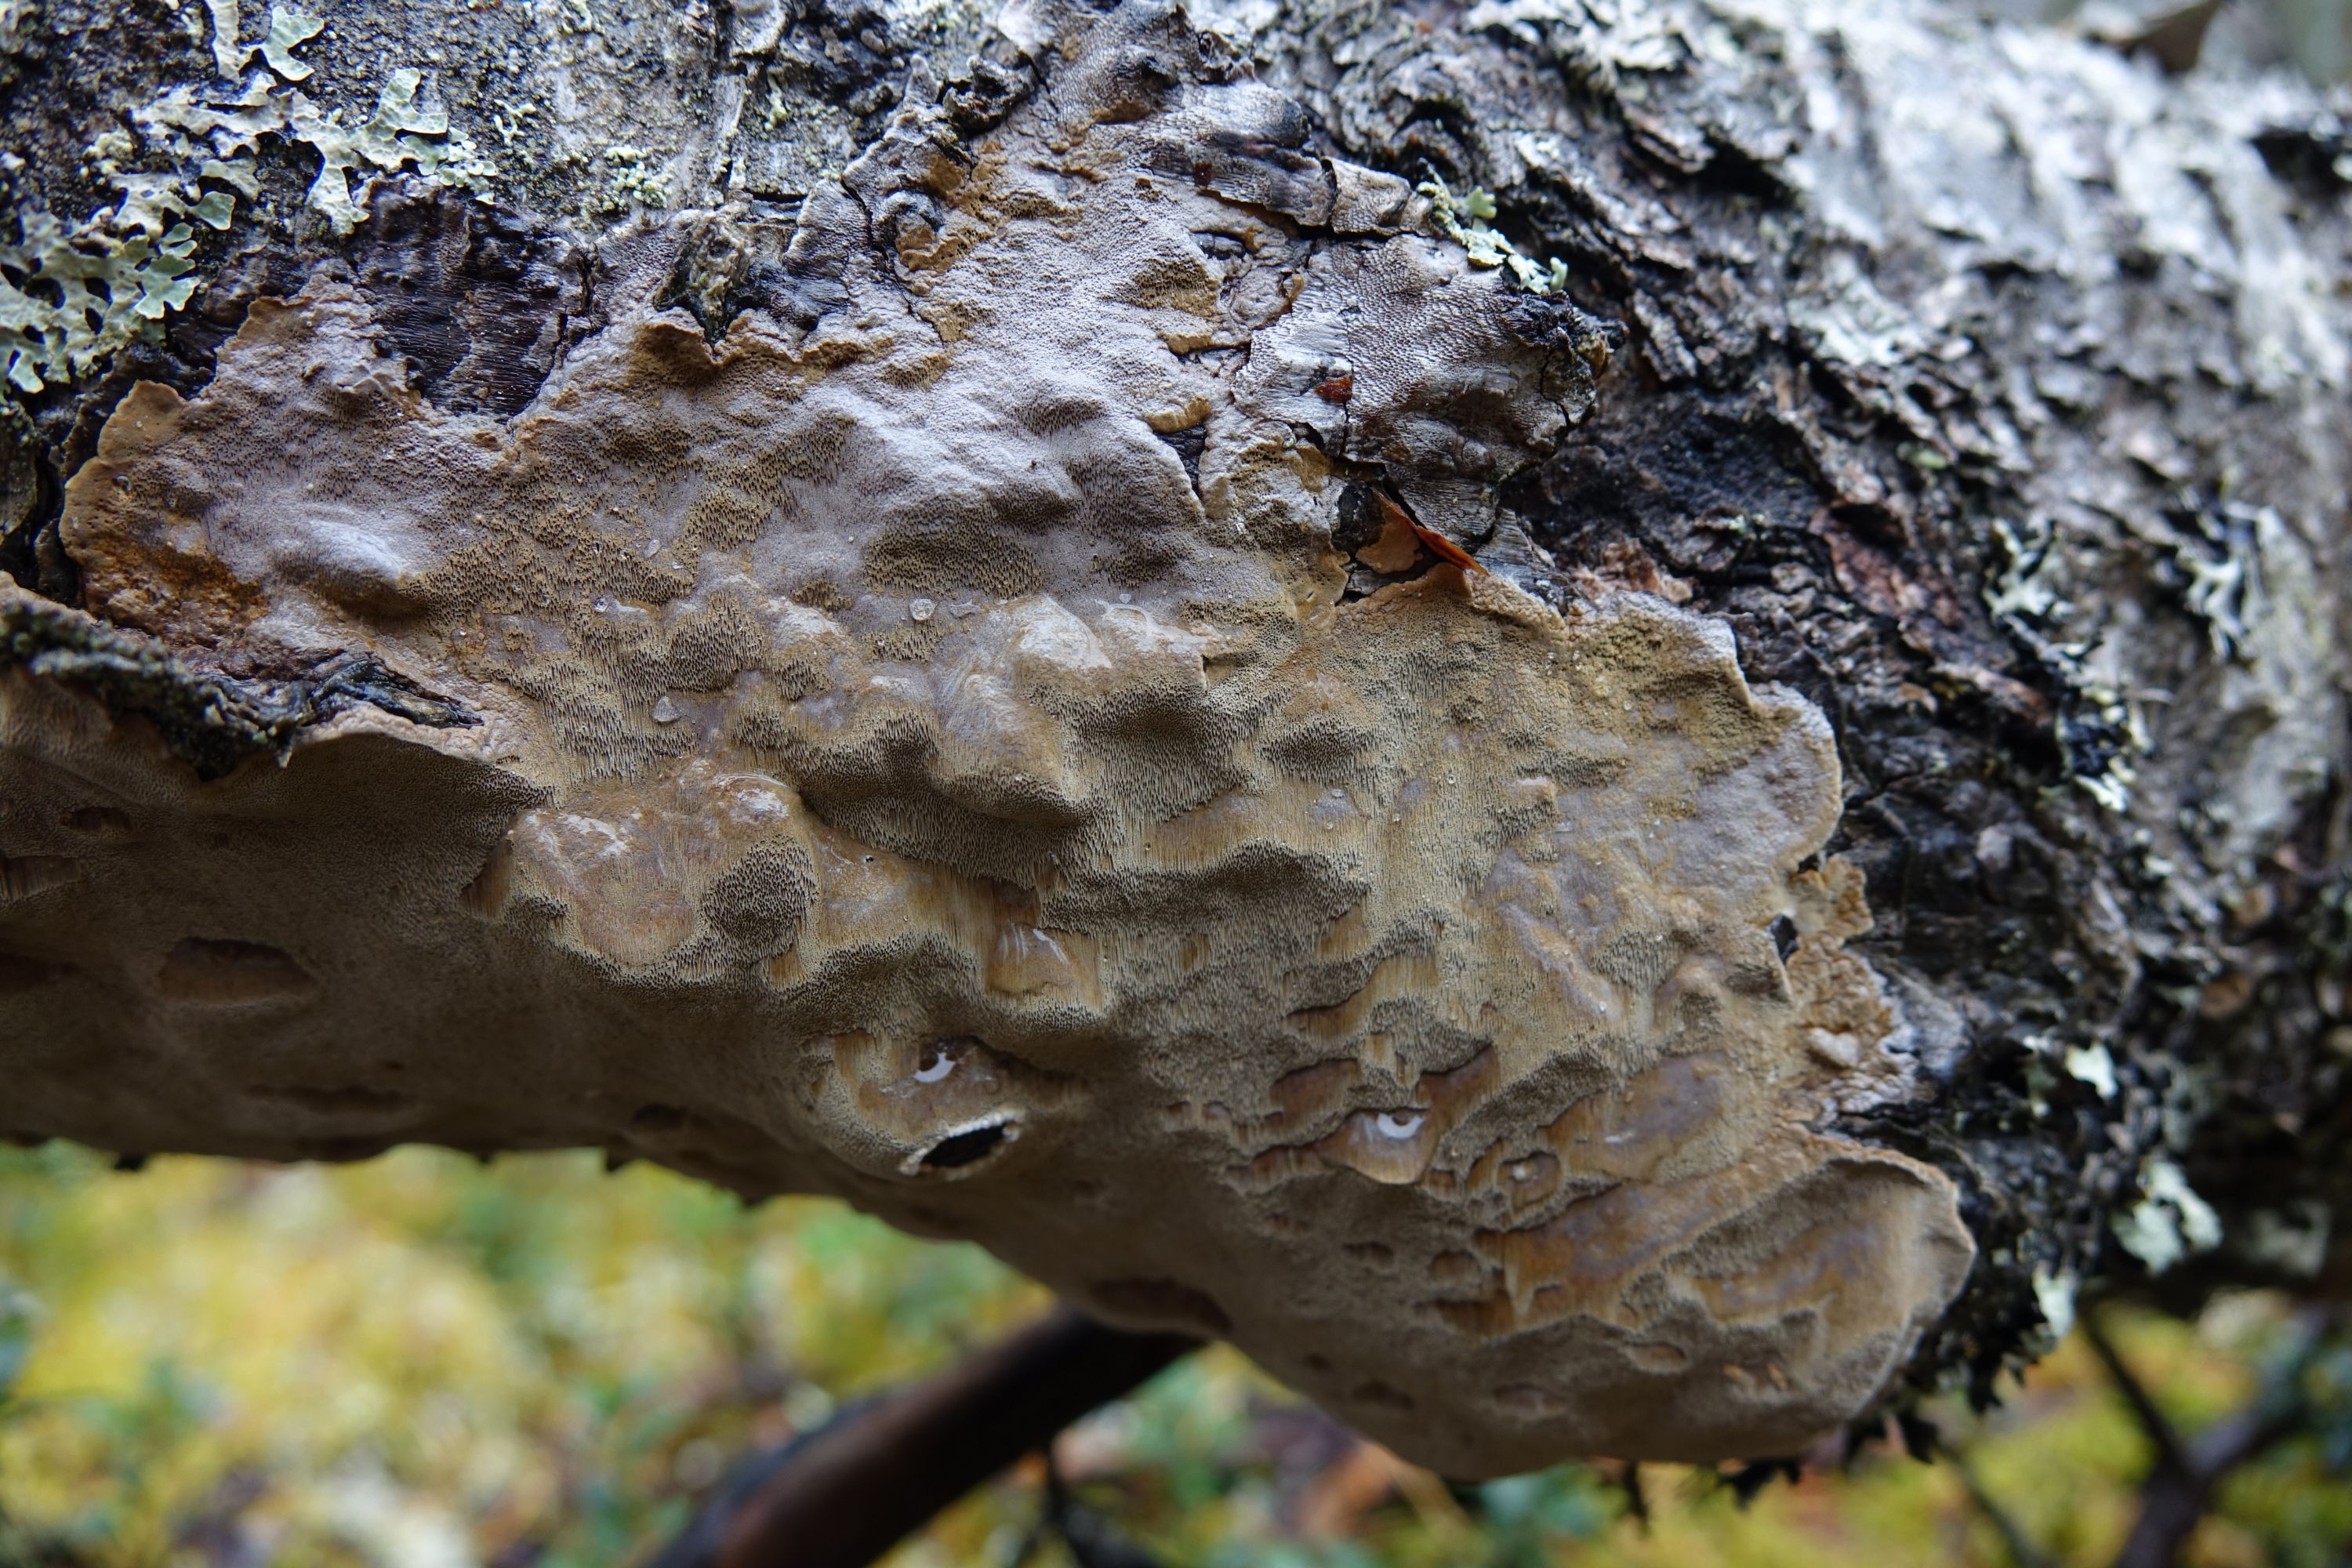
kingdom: Fungi
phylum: Basidiomycota
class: Agaricomycetes
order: Hymenochaetales
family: Hymenochaetaceae
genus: Phellinus
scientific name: Phellinus laevigatus
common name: Smooth bristle bracket
